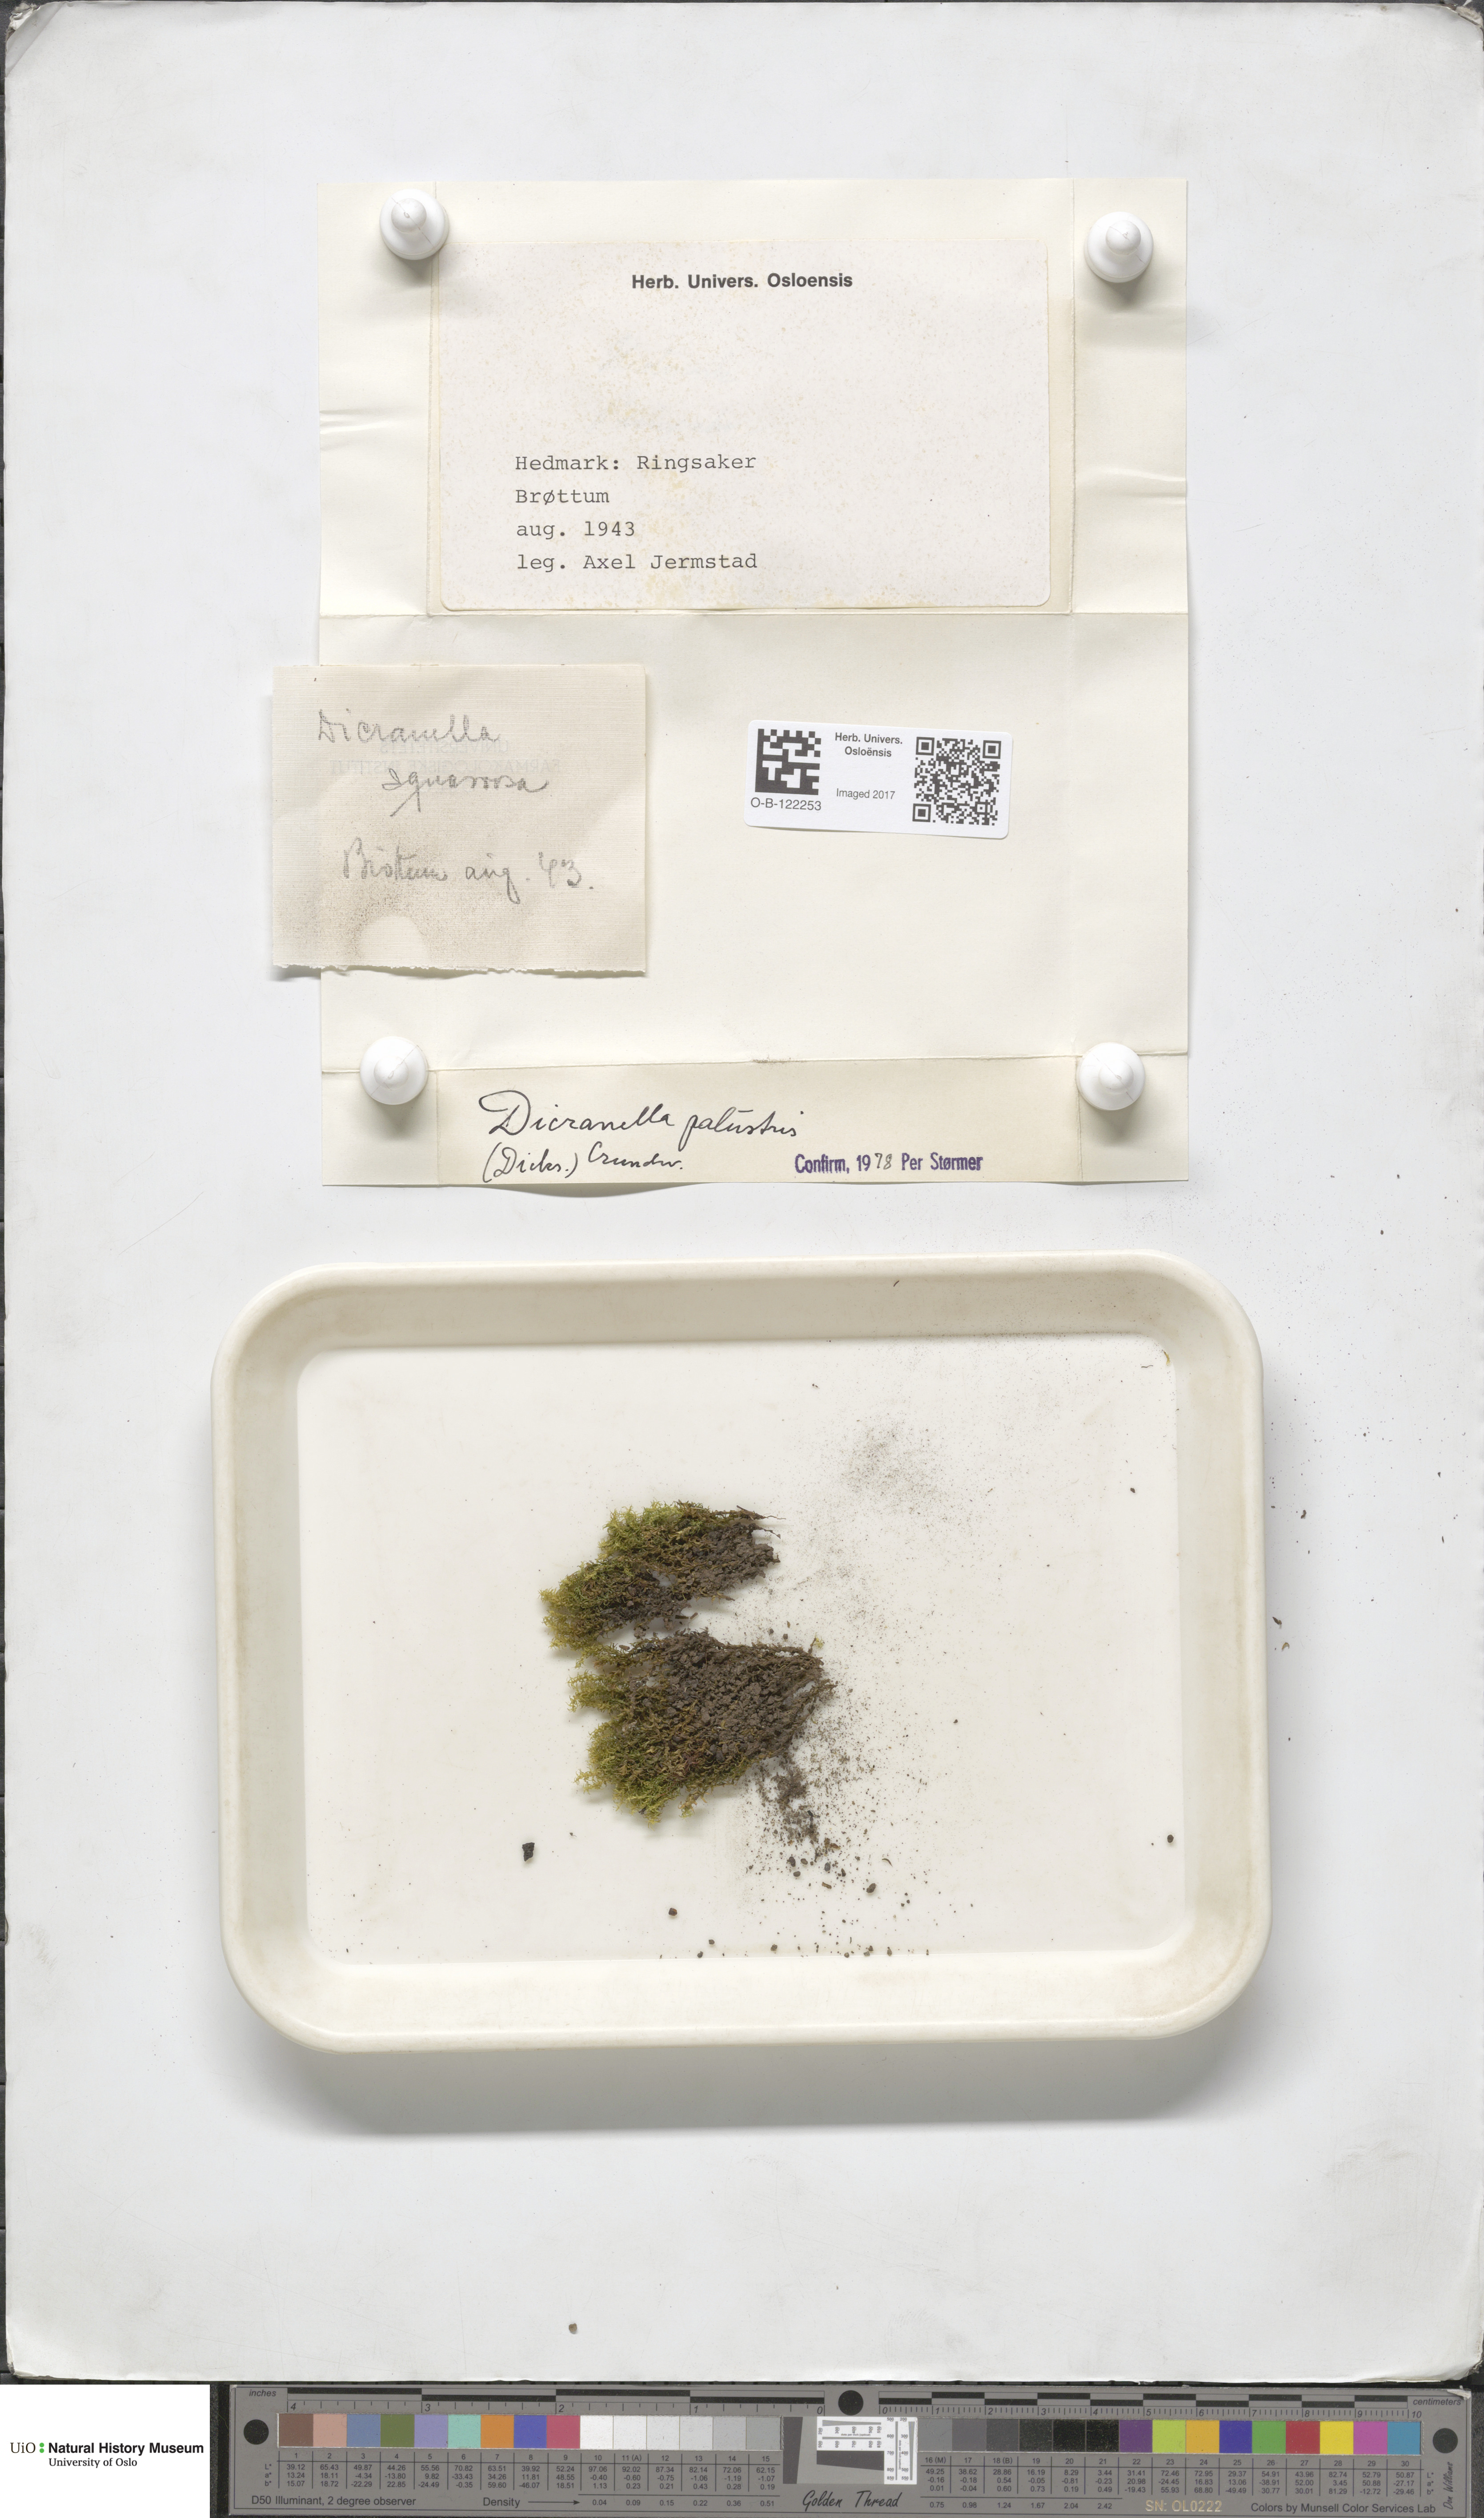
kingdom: Plantae
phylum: Bryophyta
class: Bryopsida
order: Dicranales
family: Aongstroemiaceae
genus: Diobelonella
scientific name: Diobelonella palustris
